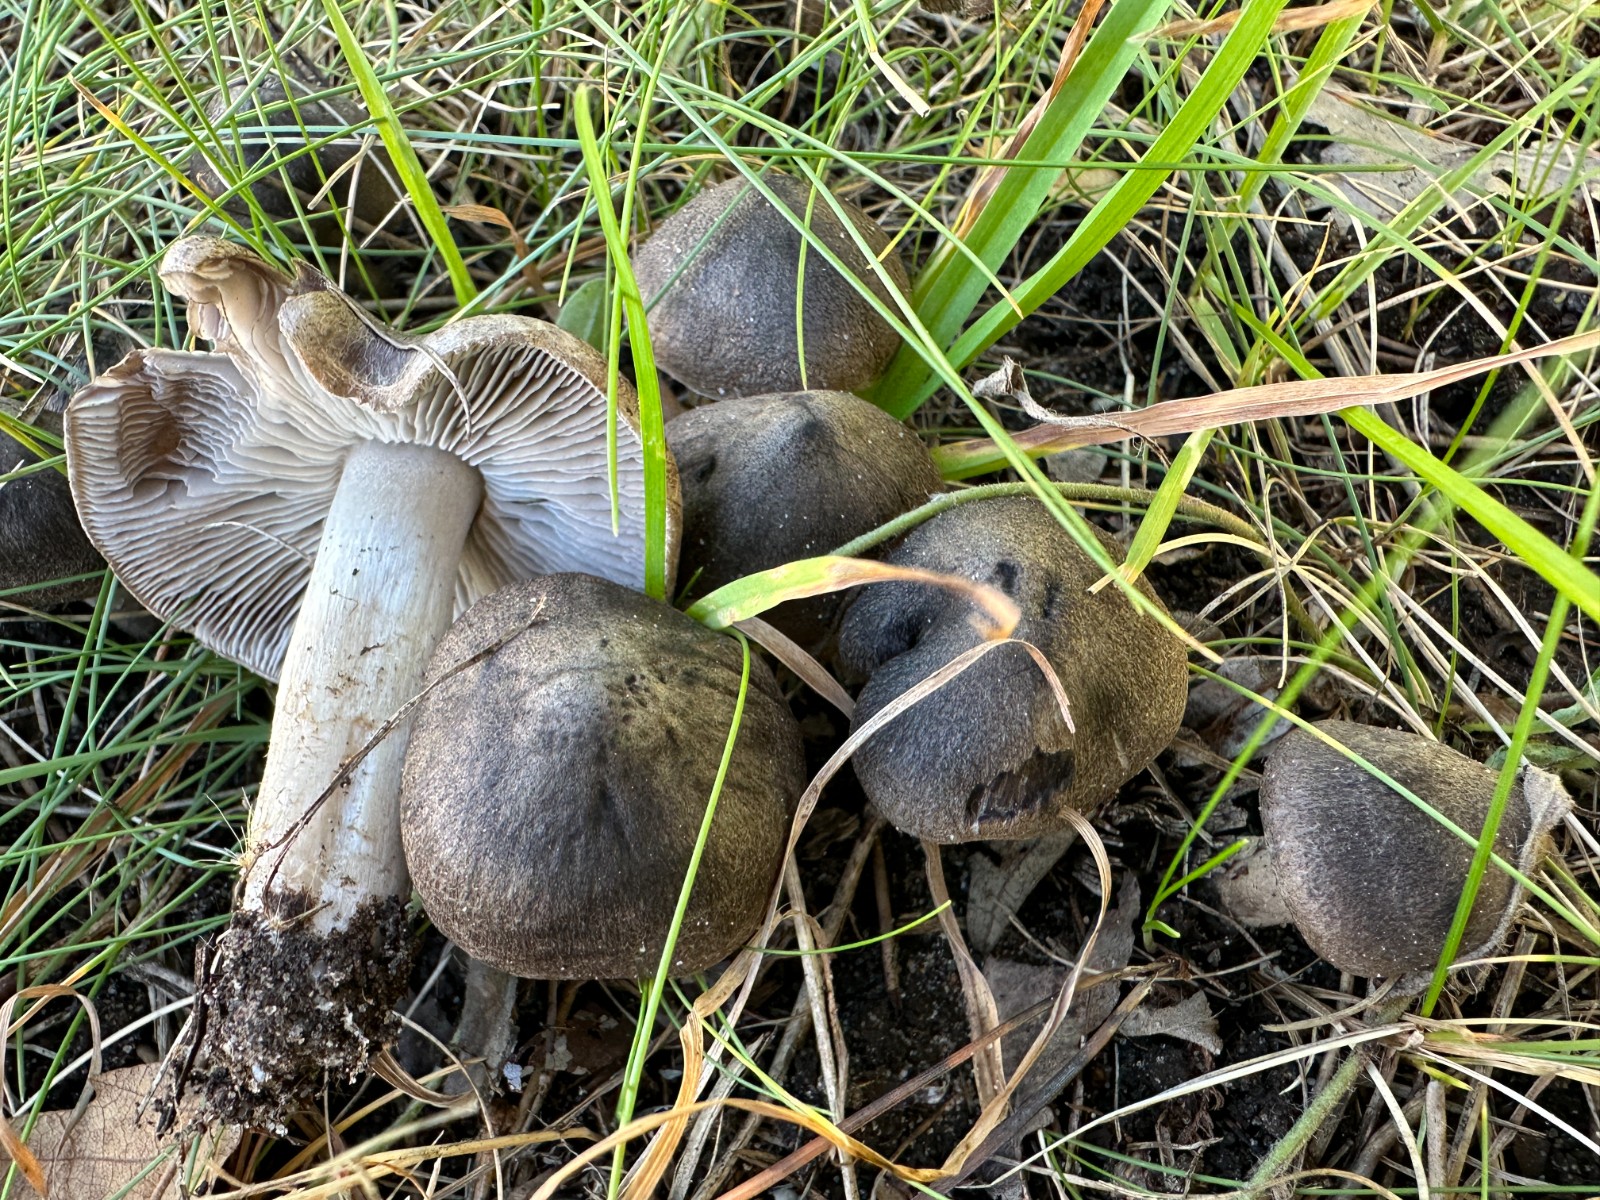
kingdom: Fungi
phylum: Basidiomycota
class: Agaricomycetes
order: Agaricales
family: Tricholomataceae
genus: Tricholoma
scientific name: Tricholoma terreum
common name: jordfarvet ridderhat
